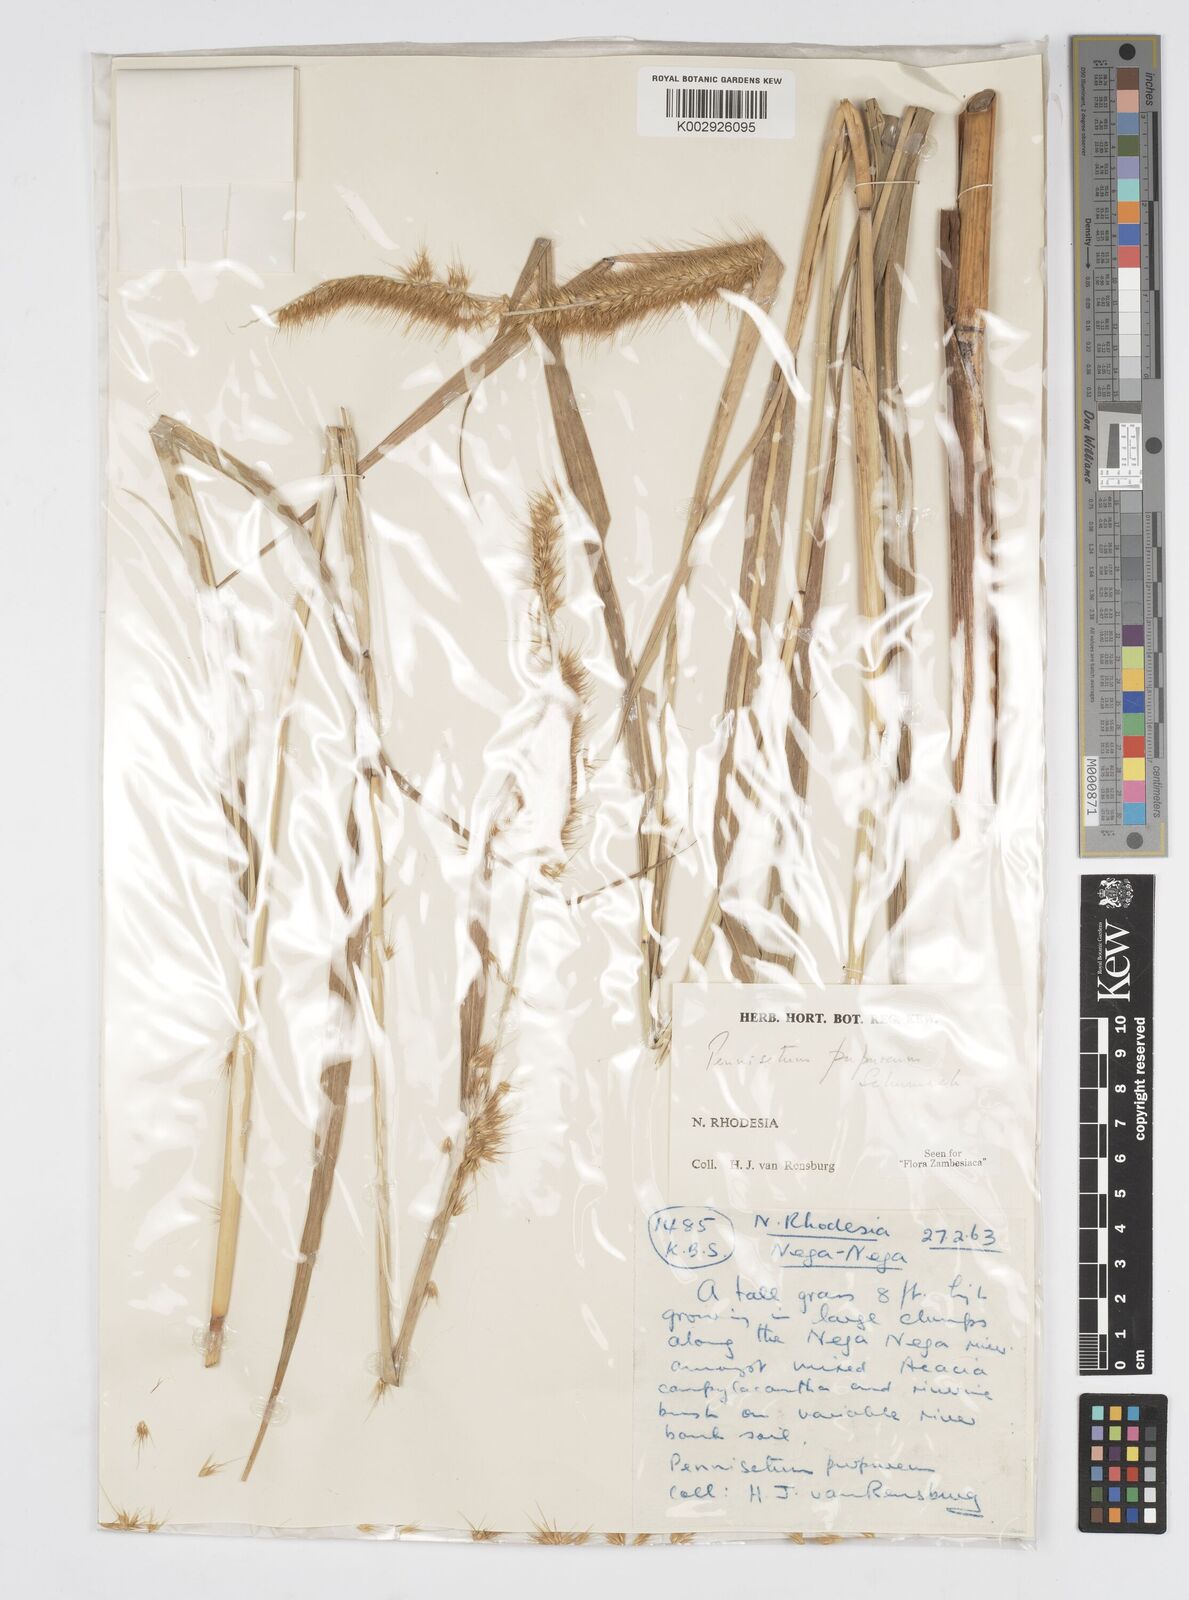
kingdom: Plantae
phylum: Tracheophyta
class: Liliopsida
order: Poales
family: Poaceae
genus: Cenchrus
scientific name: Cenchrus purpureus
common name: Elephant grass
